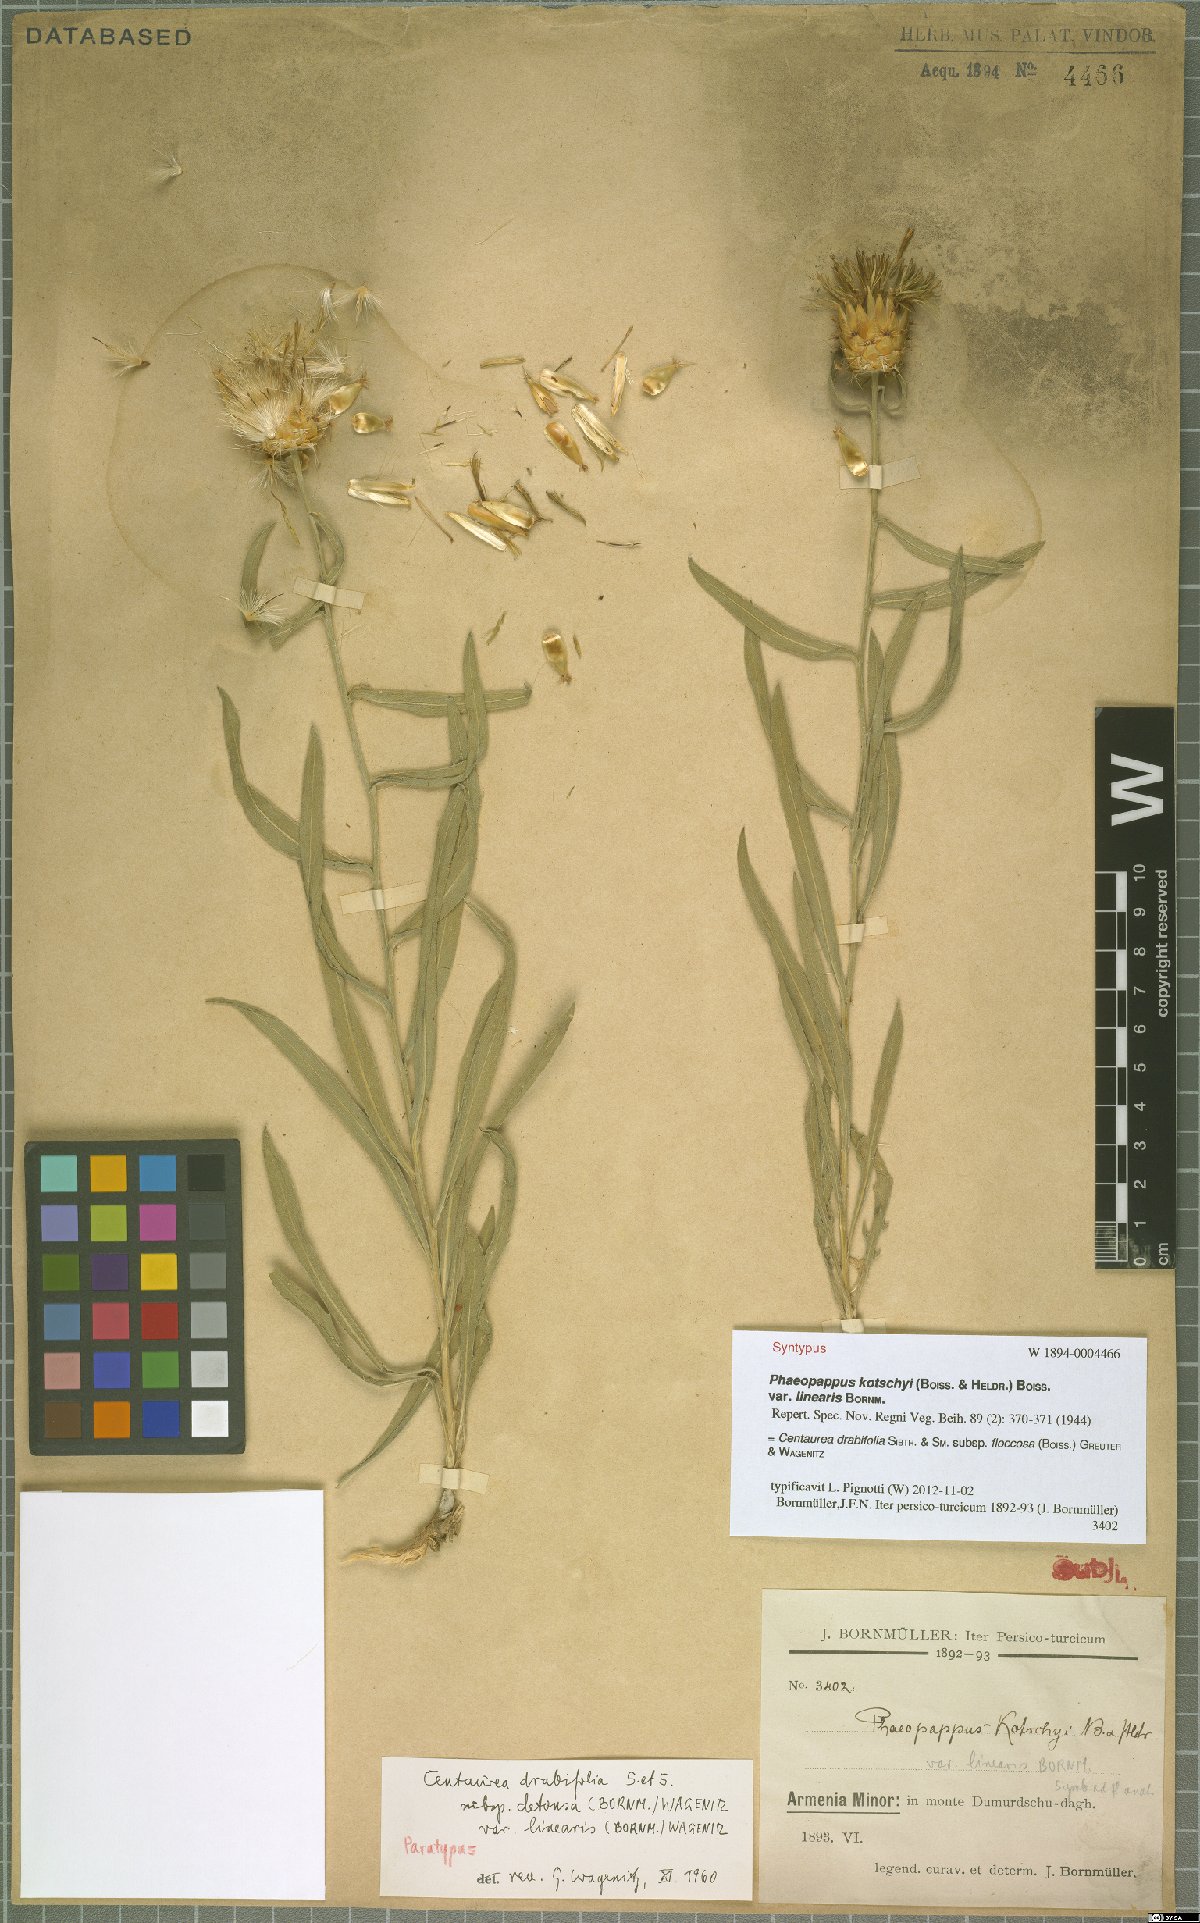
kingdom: Plantae
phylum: Tracheophyta
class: Magnoliopsida
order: Asterales
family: Asteraceae
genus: Centaurea
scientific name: Centaurea kotschyi
